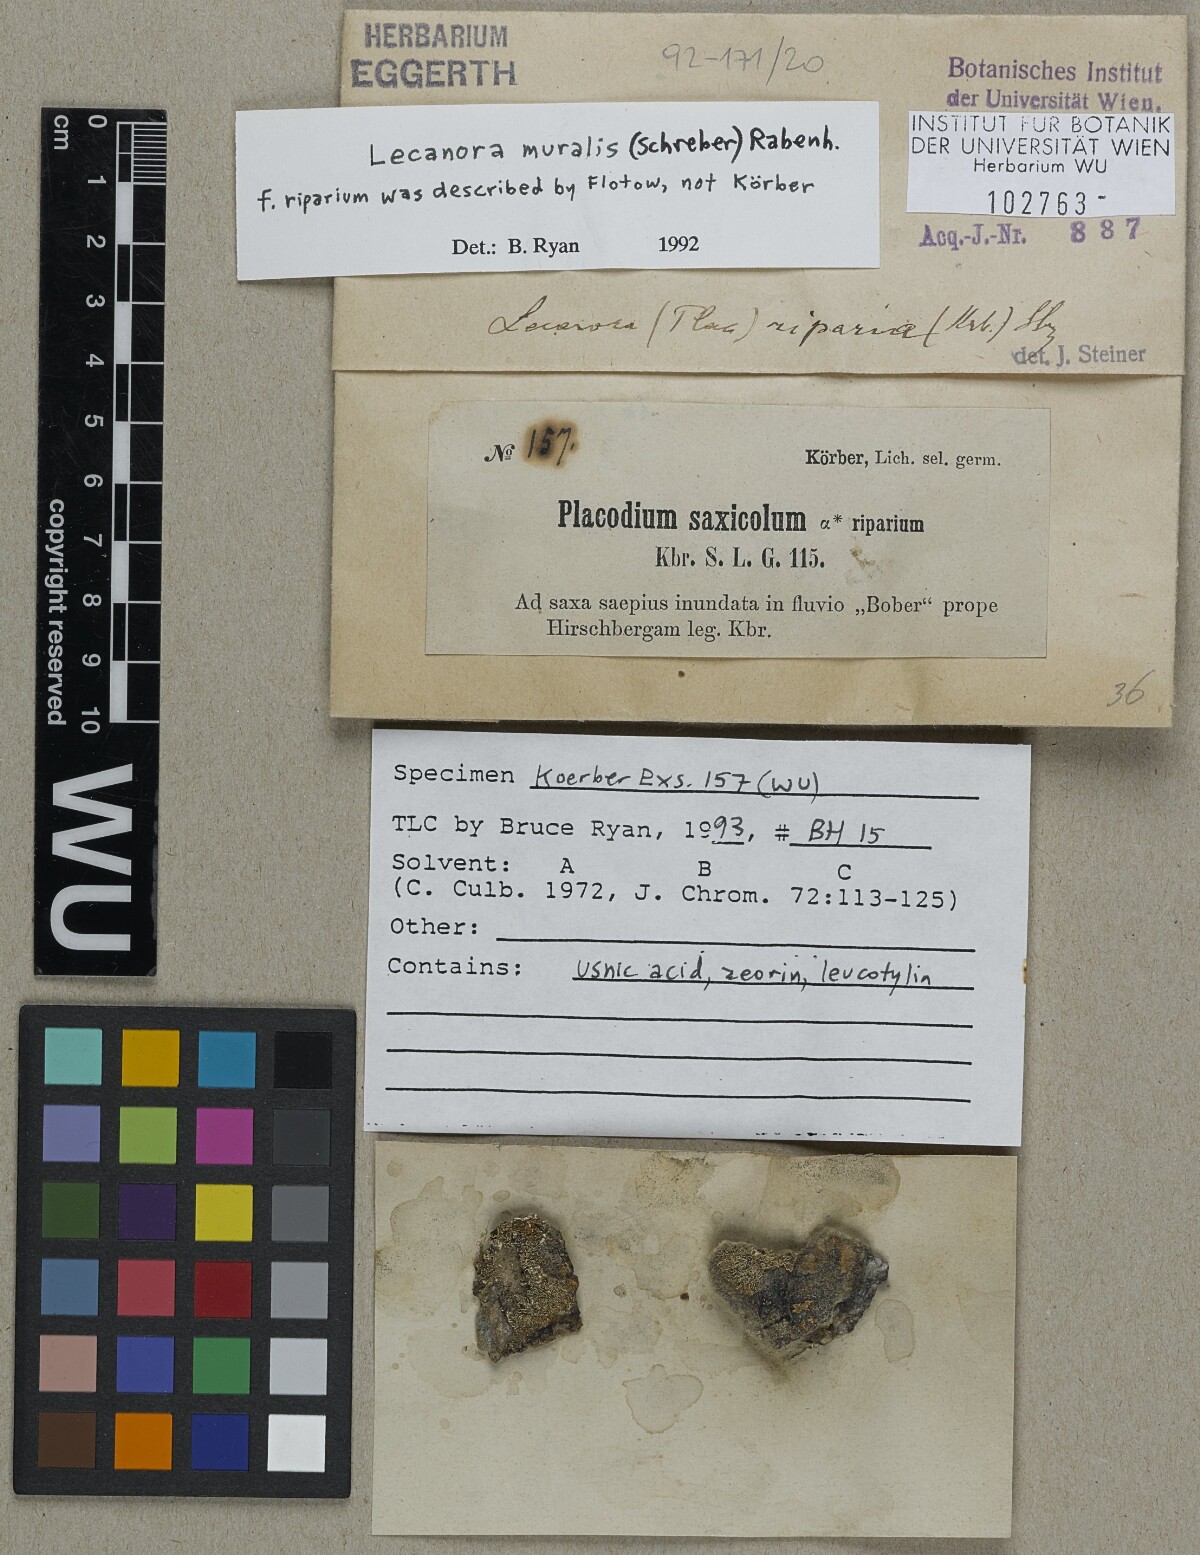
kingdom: Fungi
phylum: Ascomycota
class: Lecanoromycetes
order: Lecanorales
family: Lecanoraceae
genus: Protoparmeliopsis
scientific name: Protoparmeliopsis muralis
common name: Stonewall rim lichen
